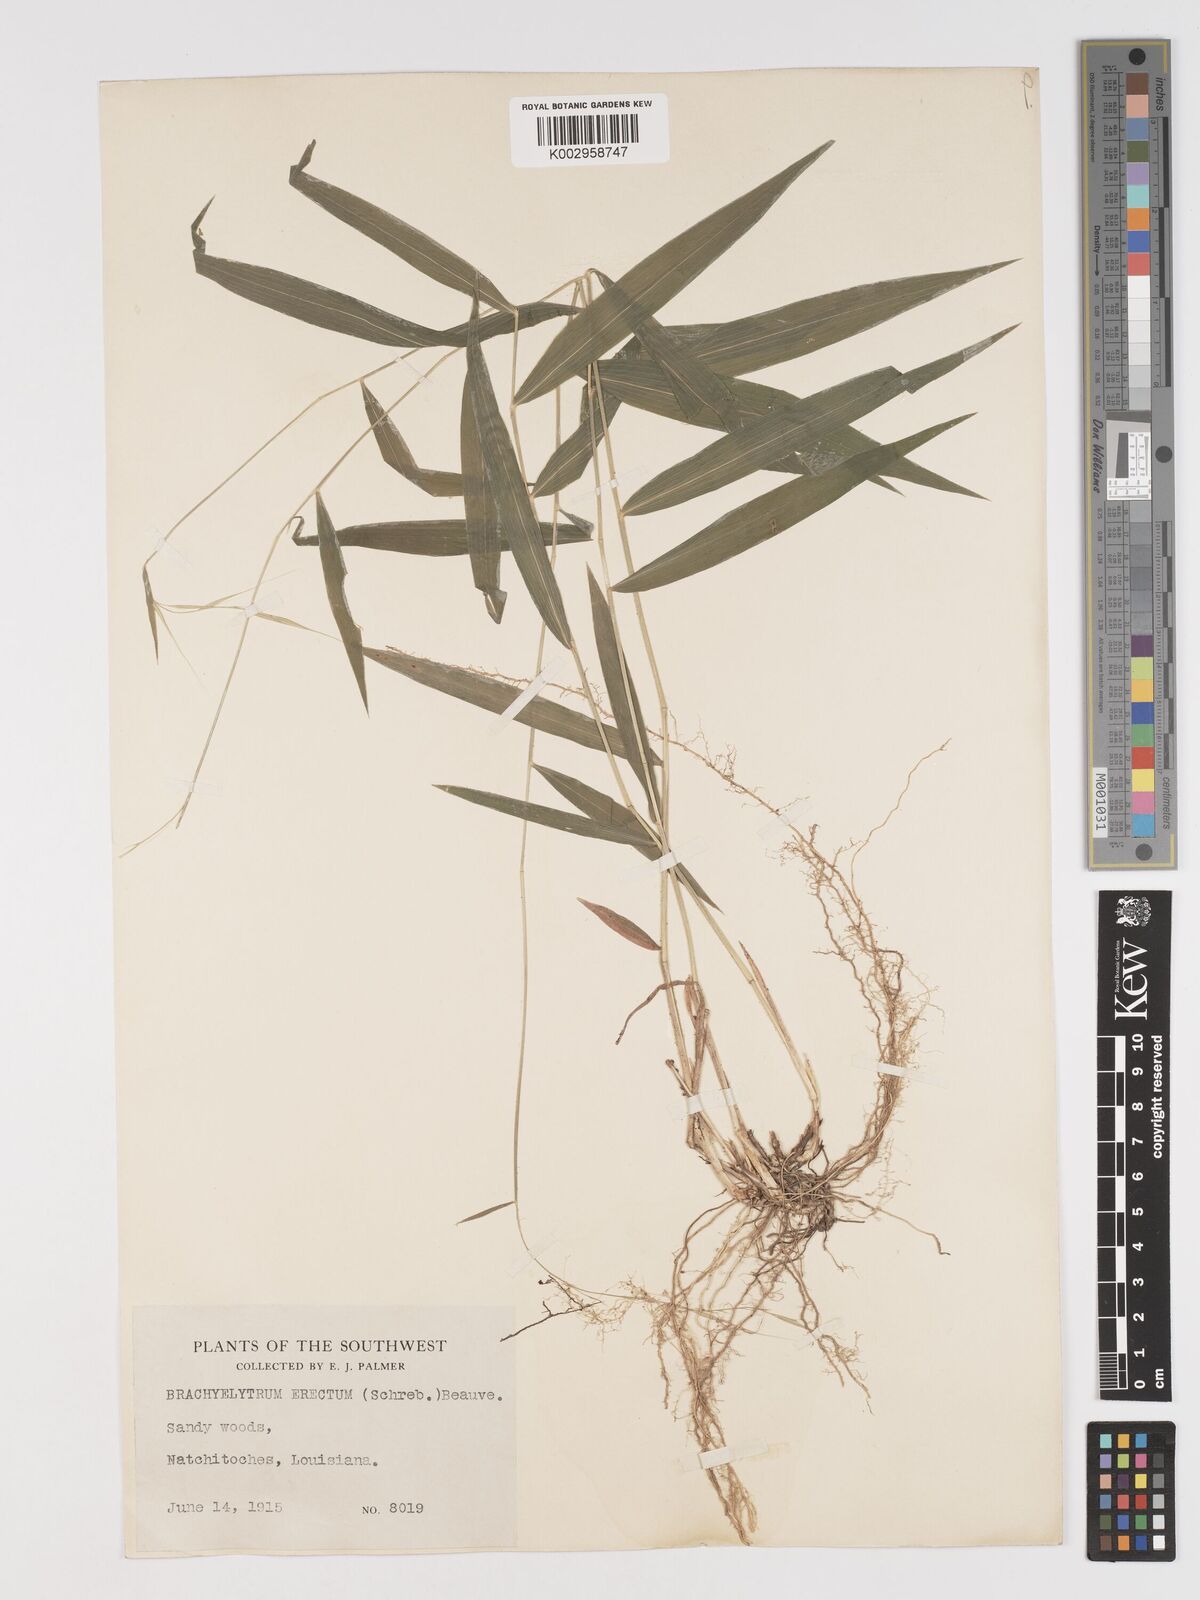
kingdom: Plantae
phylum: Tracheophyta
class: Liliopsida
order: Poales
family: Poaceae
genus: Brachyelytrum
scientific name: Brachyelytrum erectum
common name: Bearded shorthusk
